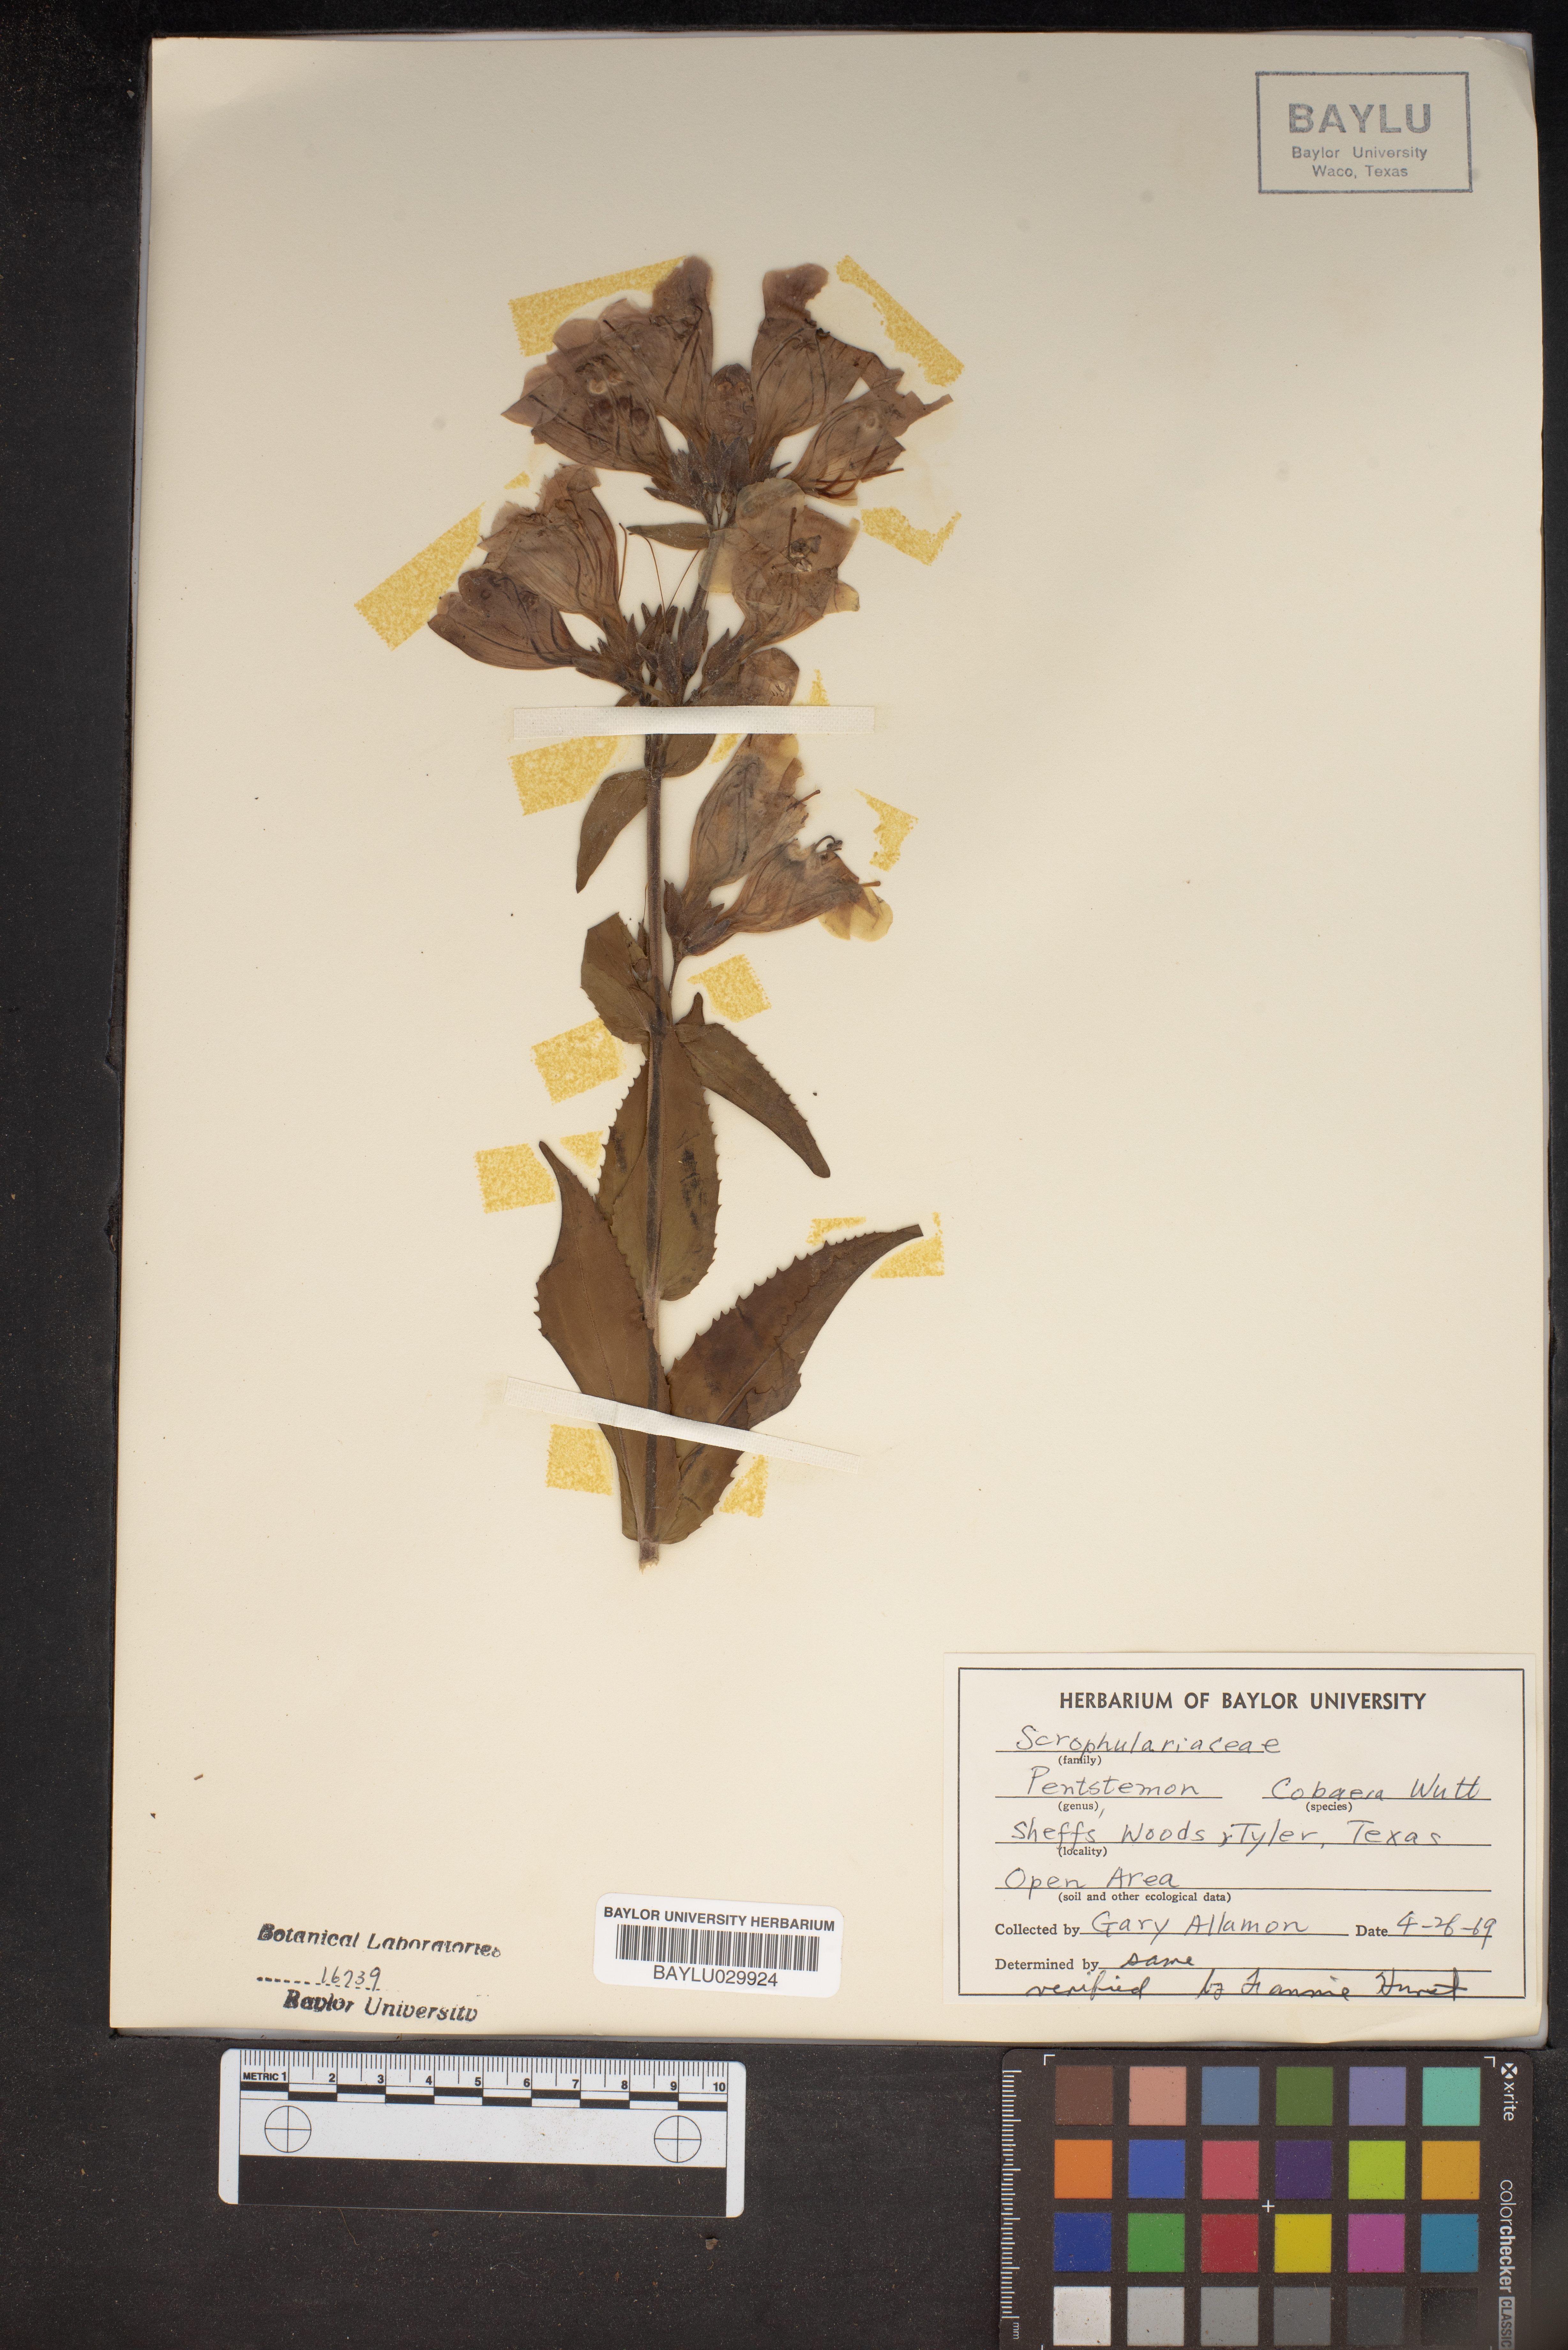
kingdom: Plantae
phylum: Tracheophyta
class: Magnoliopsida
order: Lamiales
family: Plantaginaceae
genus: Penstemon
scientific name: Penstemon cobaea
